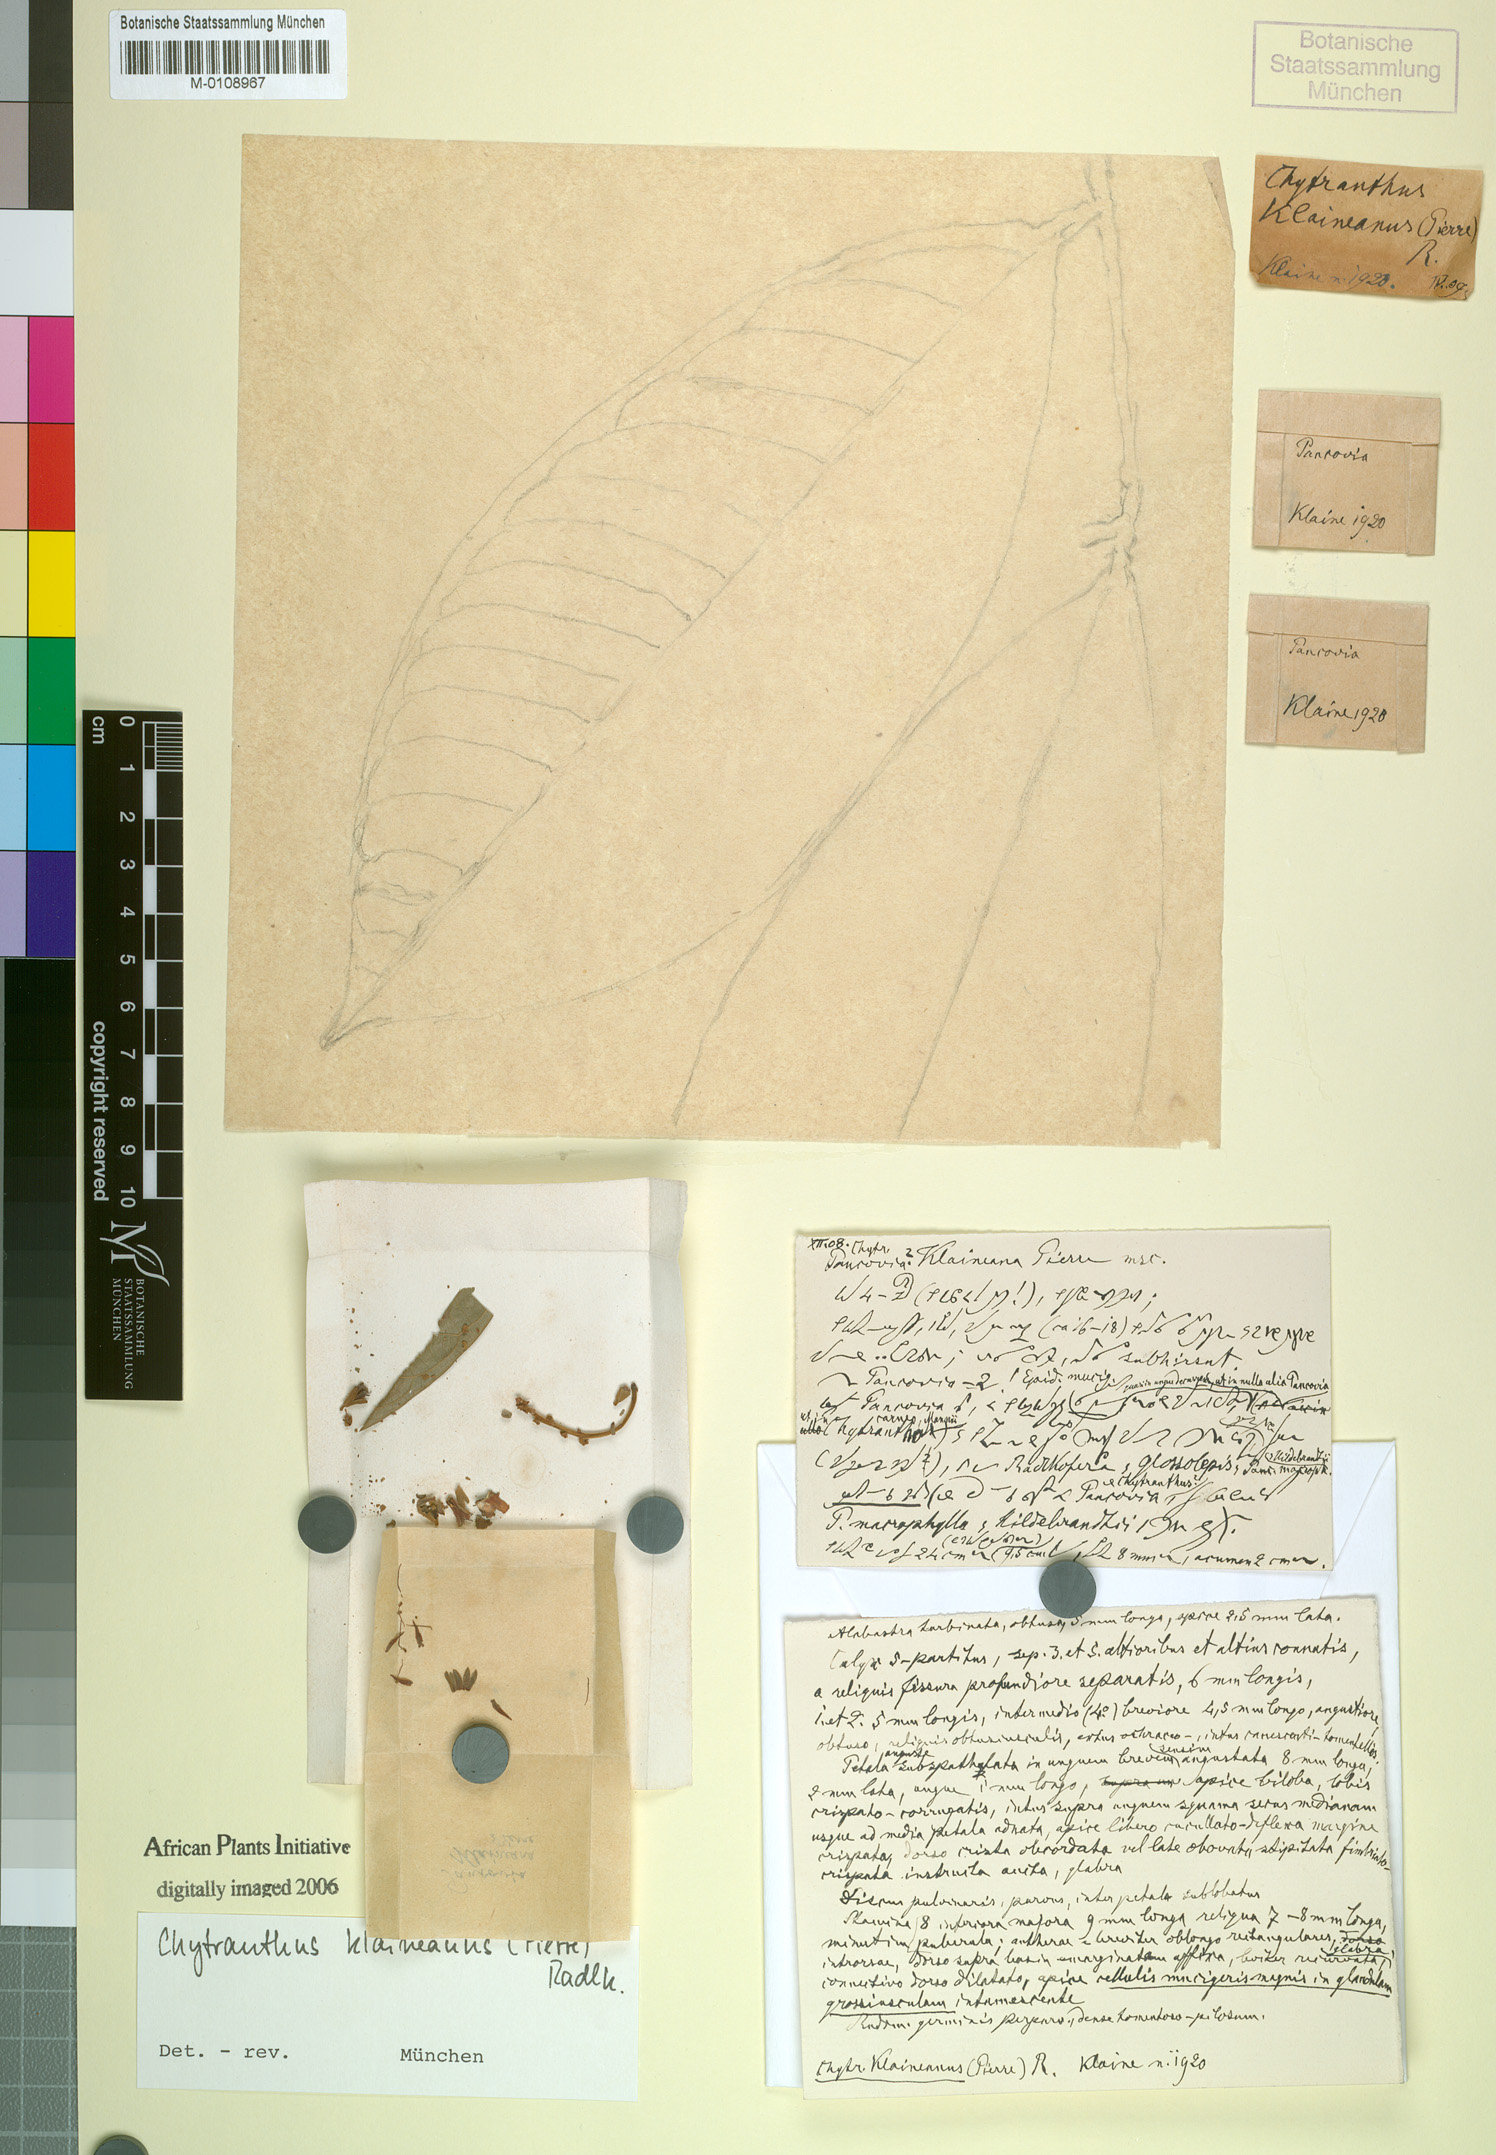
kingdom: Plantae
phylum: Tracheophyta
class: Magnoliopsida
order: Sapindales
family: Sapindaceae
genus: Chytranthus
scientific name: Chytranthus klaineanus
